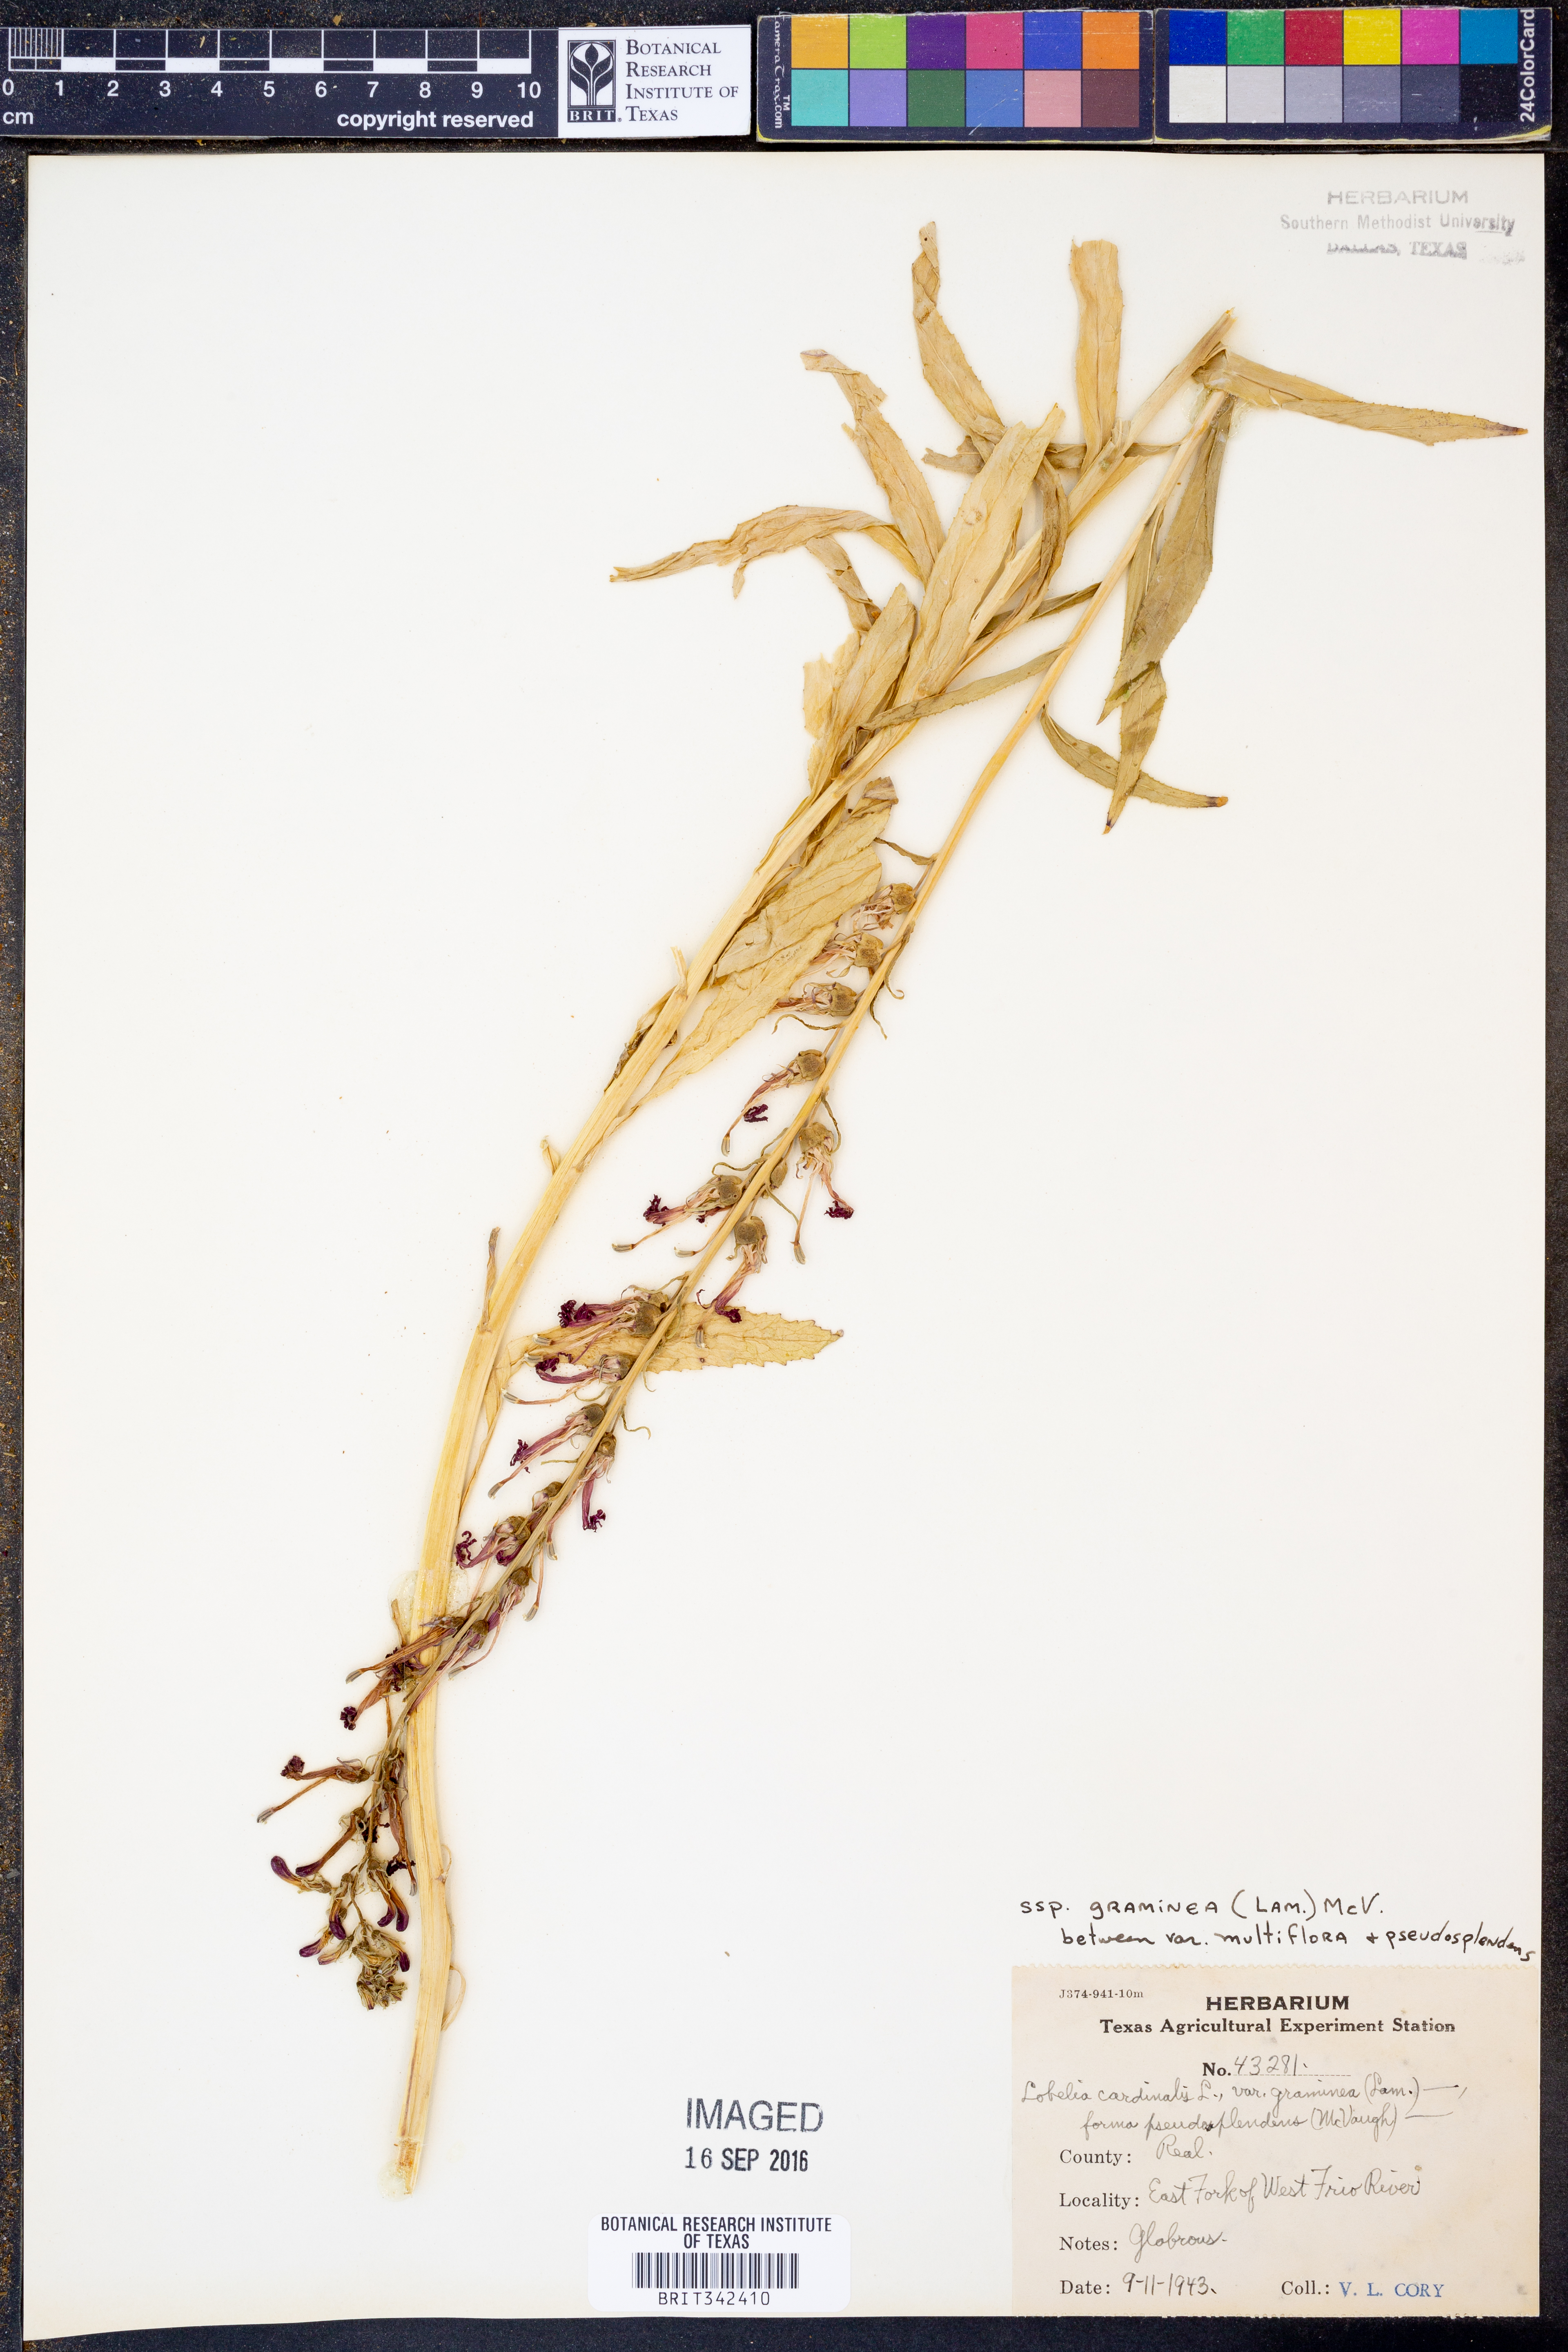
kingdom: Plantae
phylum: Tracheophyta
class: Magnoliopsida
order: Asterales
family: Campanulaceae
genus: Lobelia
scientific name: Lobelia cardinalis
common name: Cardinal flower
